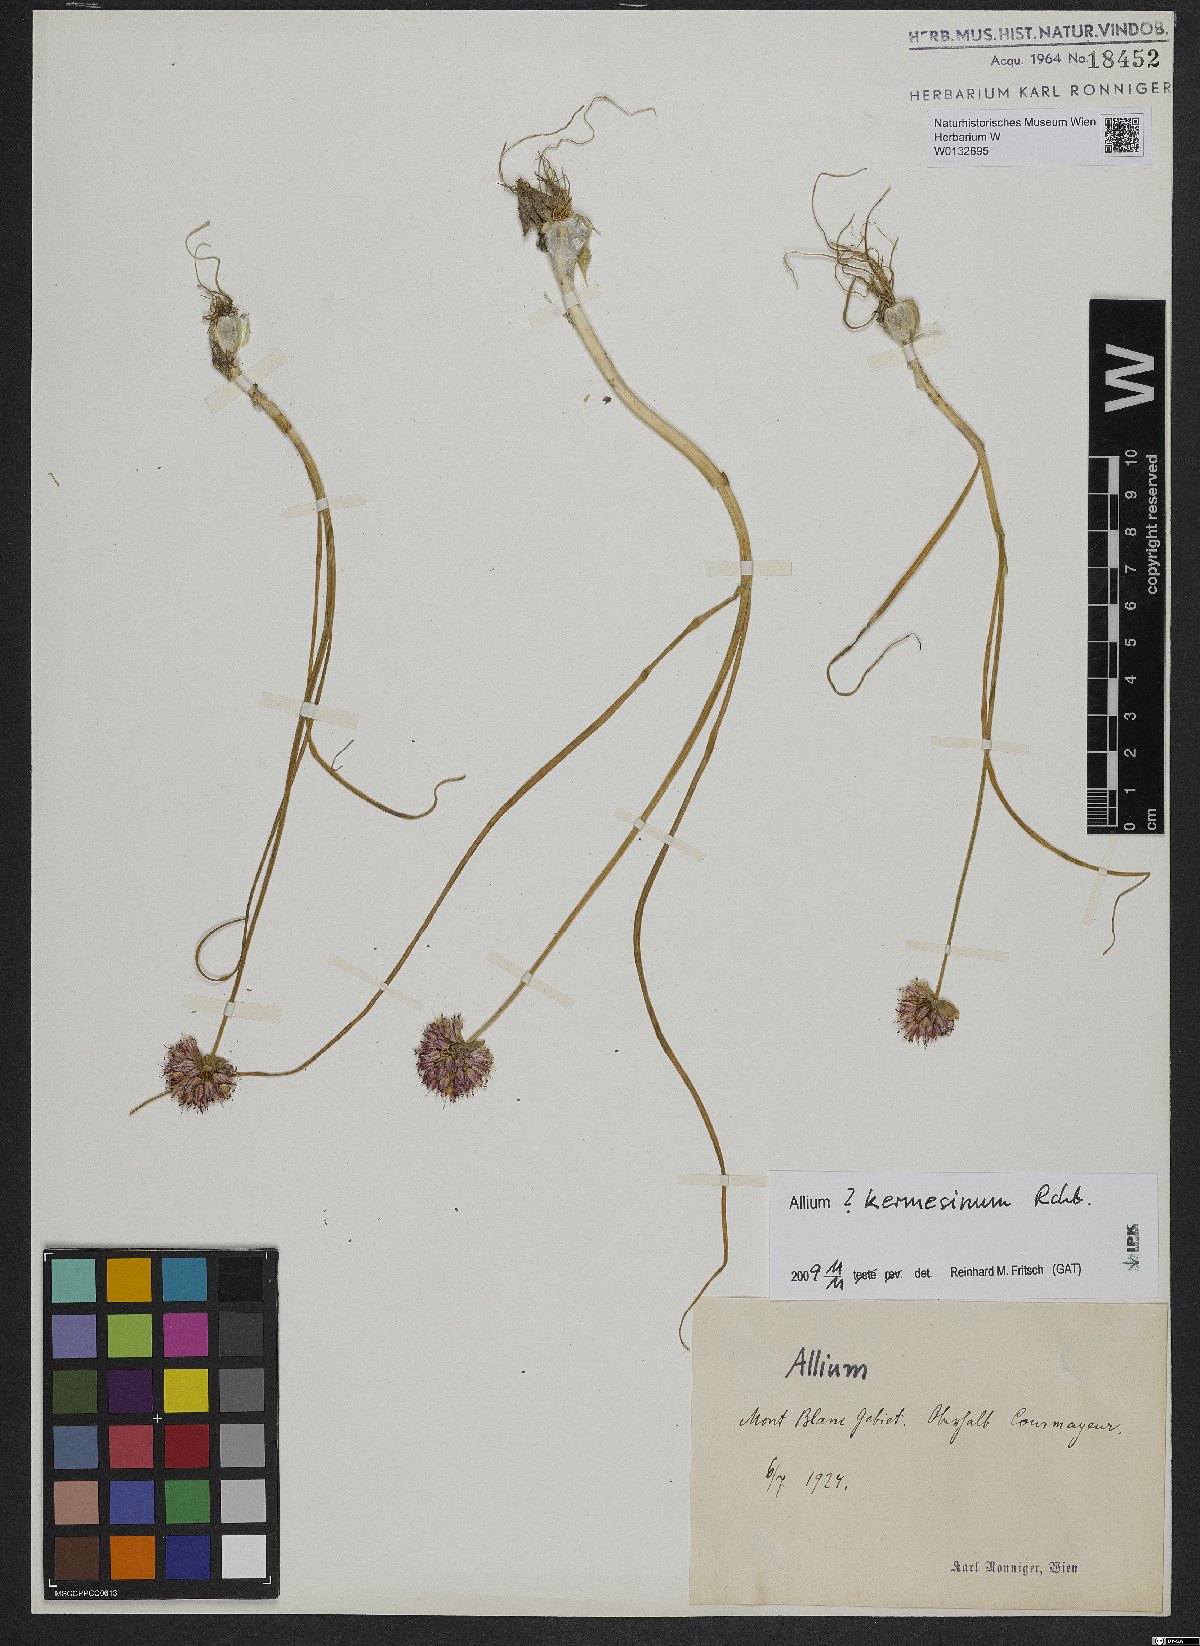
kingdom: Plantae
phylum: Tracheophyta
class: Liliopsida
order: Asparagales
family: Amaryllidaceae
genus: Allium
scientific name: Allium kermesinum
